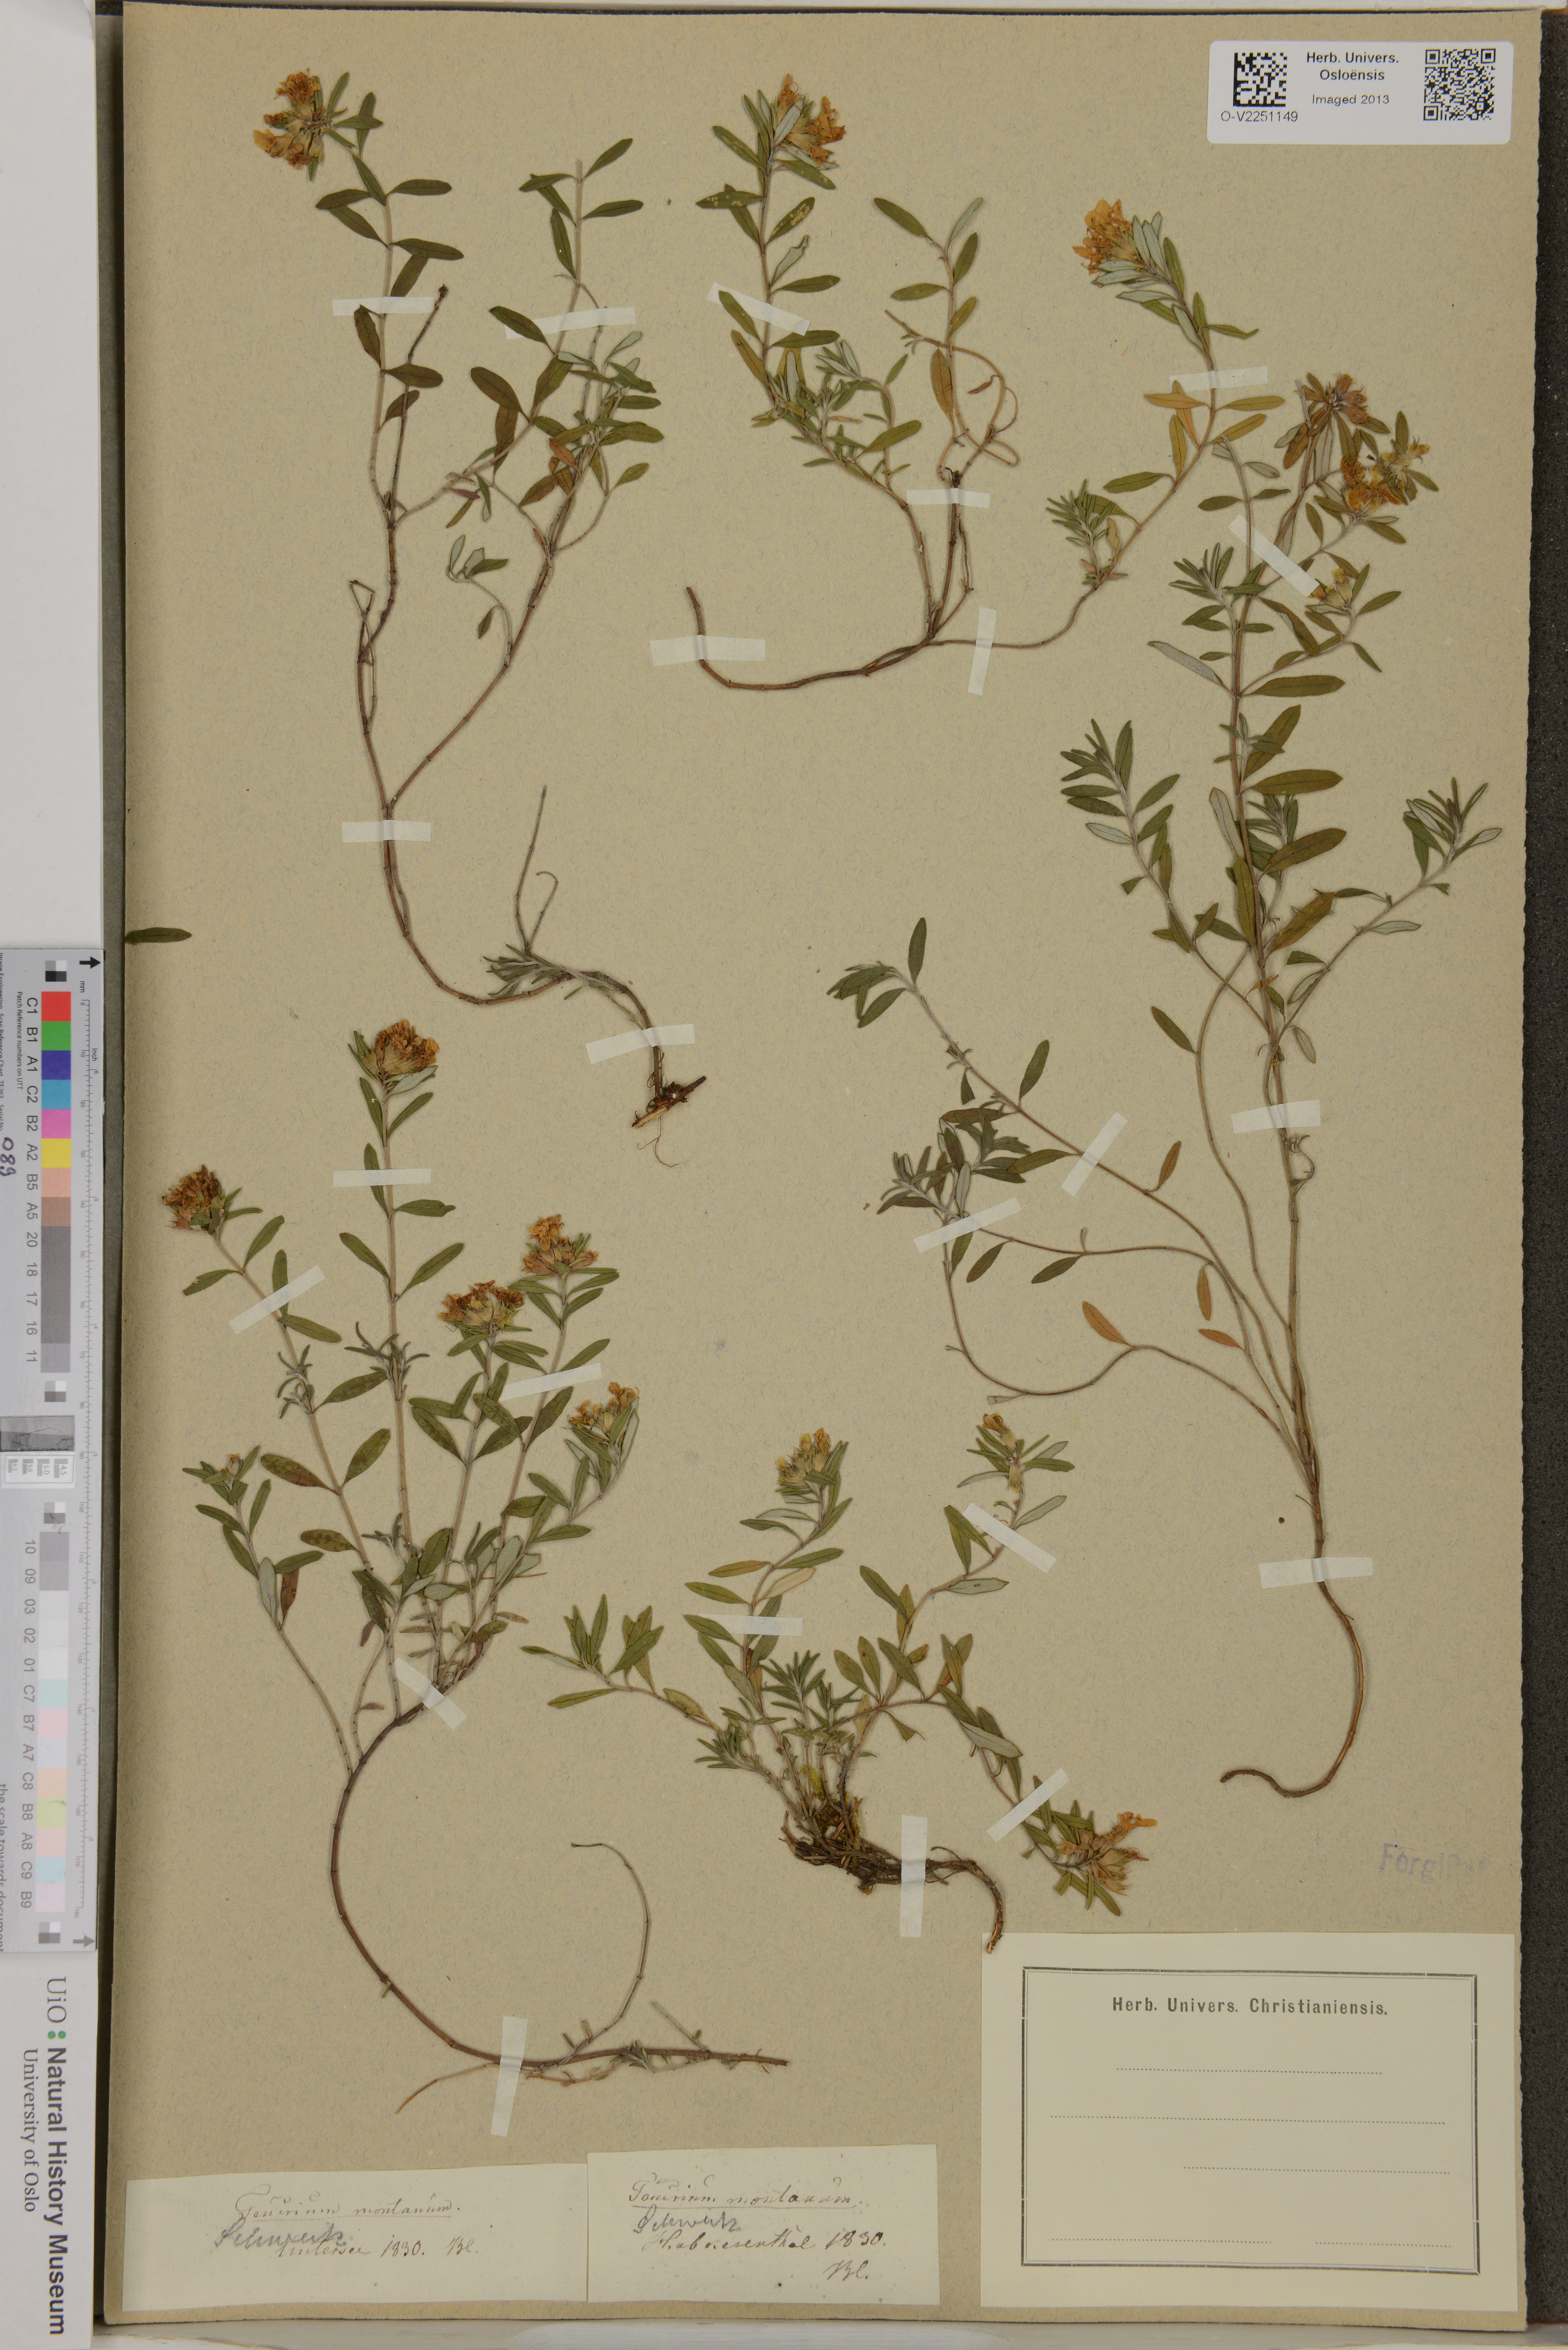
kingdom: Plantae
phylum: Tracheophyta
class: Magnoliopsida
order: Lamiales
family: Lamiaceae
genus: Teucrium
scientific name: Teucrium montanum
